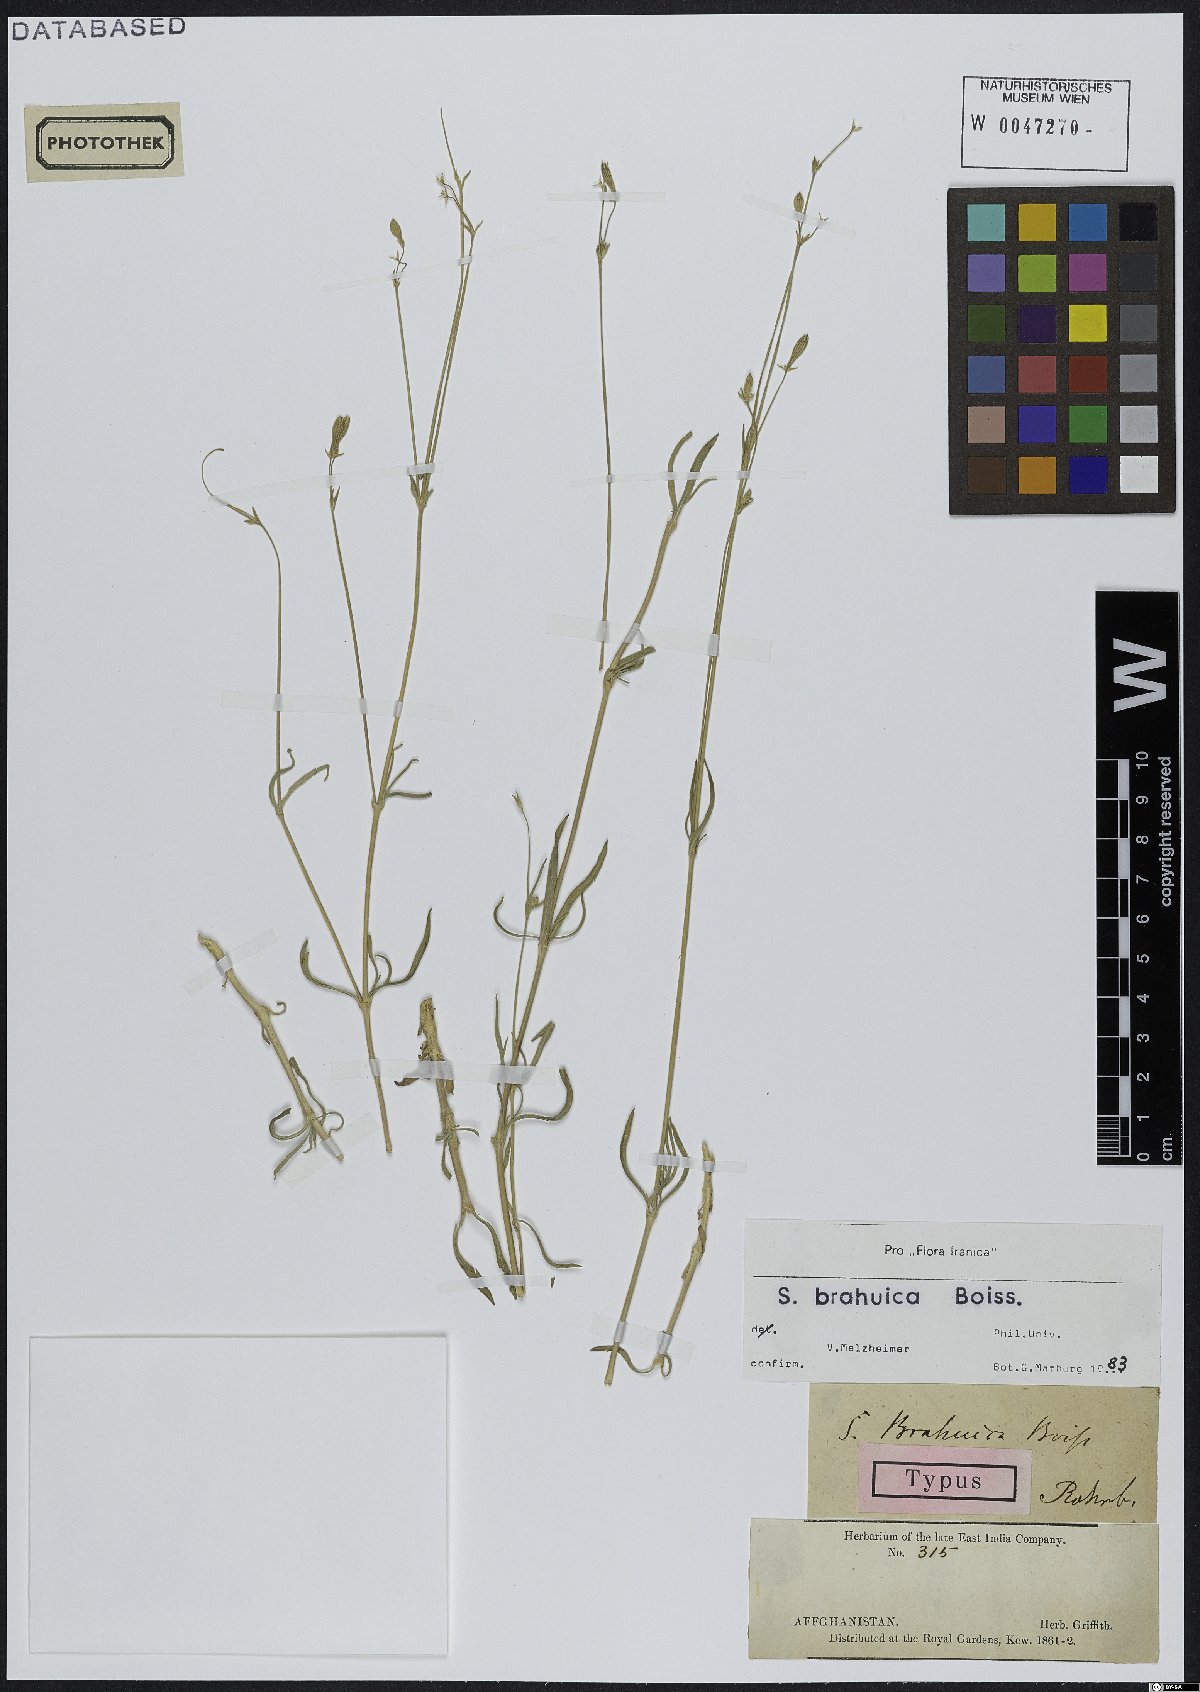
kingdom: Plantae
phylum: Tracheophyta
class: Magnoliopsida
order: Caryophyllales
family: Caryophyllaceae
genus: Silene
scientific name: Silene brahuica
